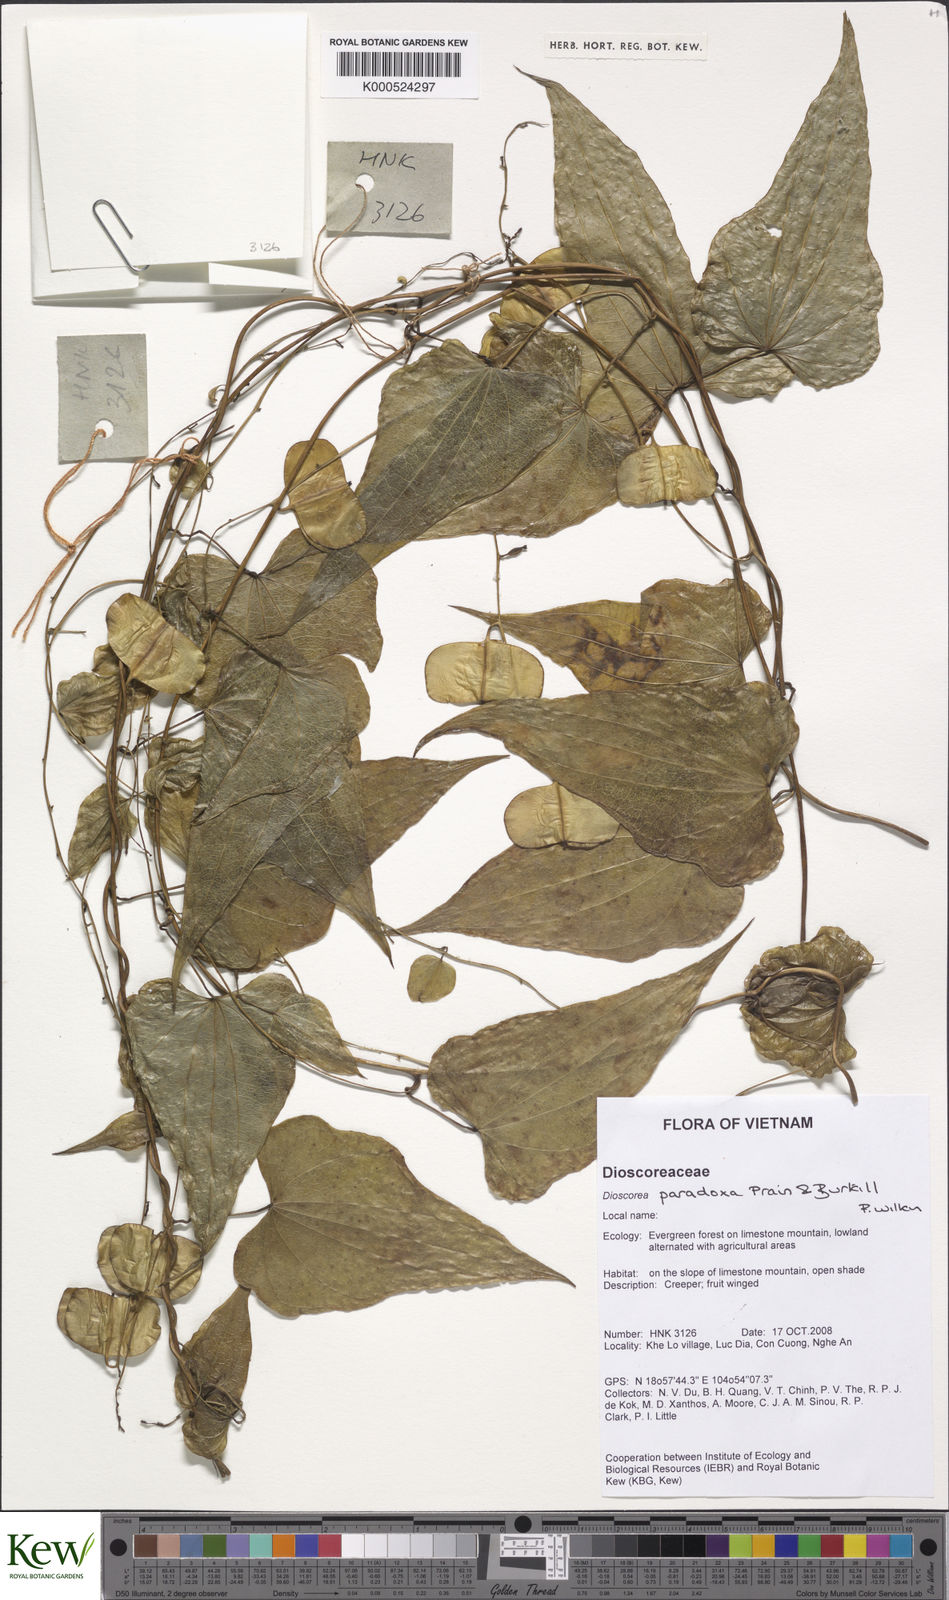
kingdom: Plantae
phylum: Tracheophyta
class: Liliopsida
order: Dioscoreales
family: Dioscoreaceae
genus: Dioscorea
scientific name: Dioscorea paradoxa
